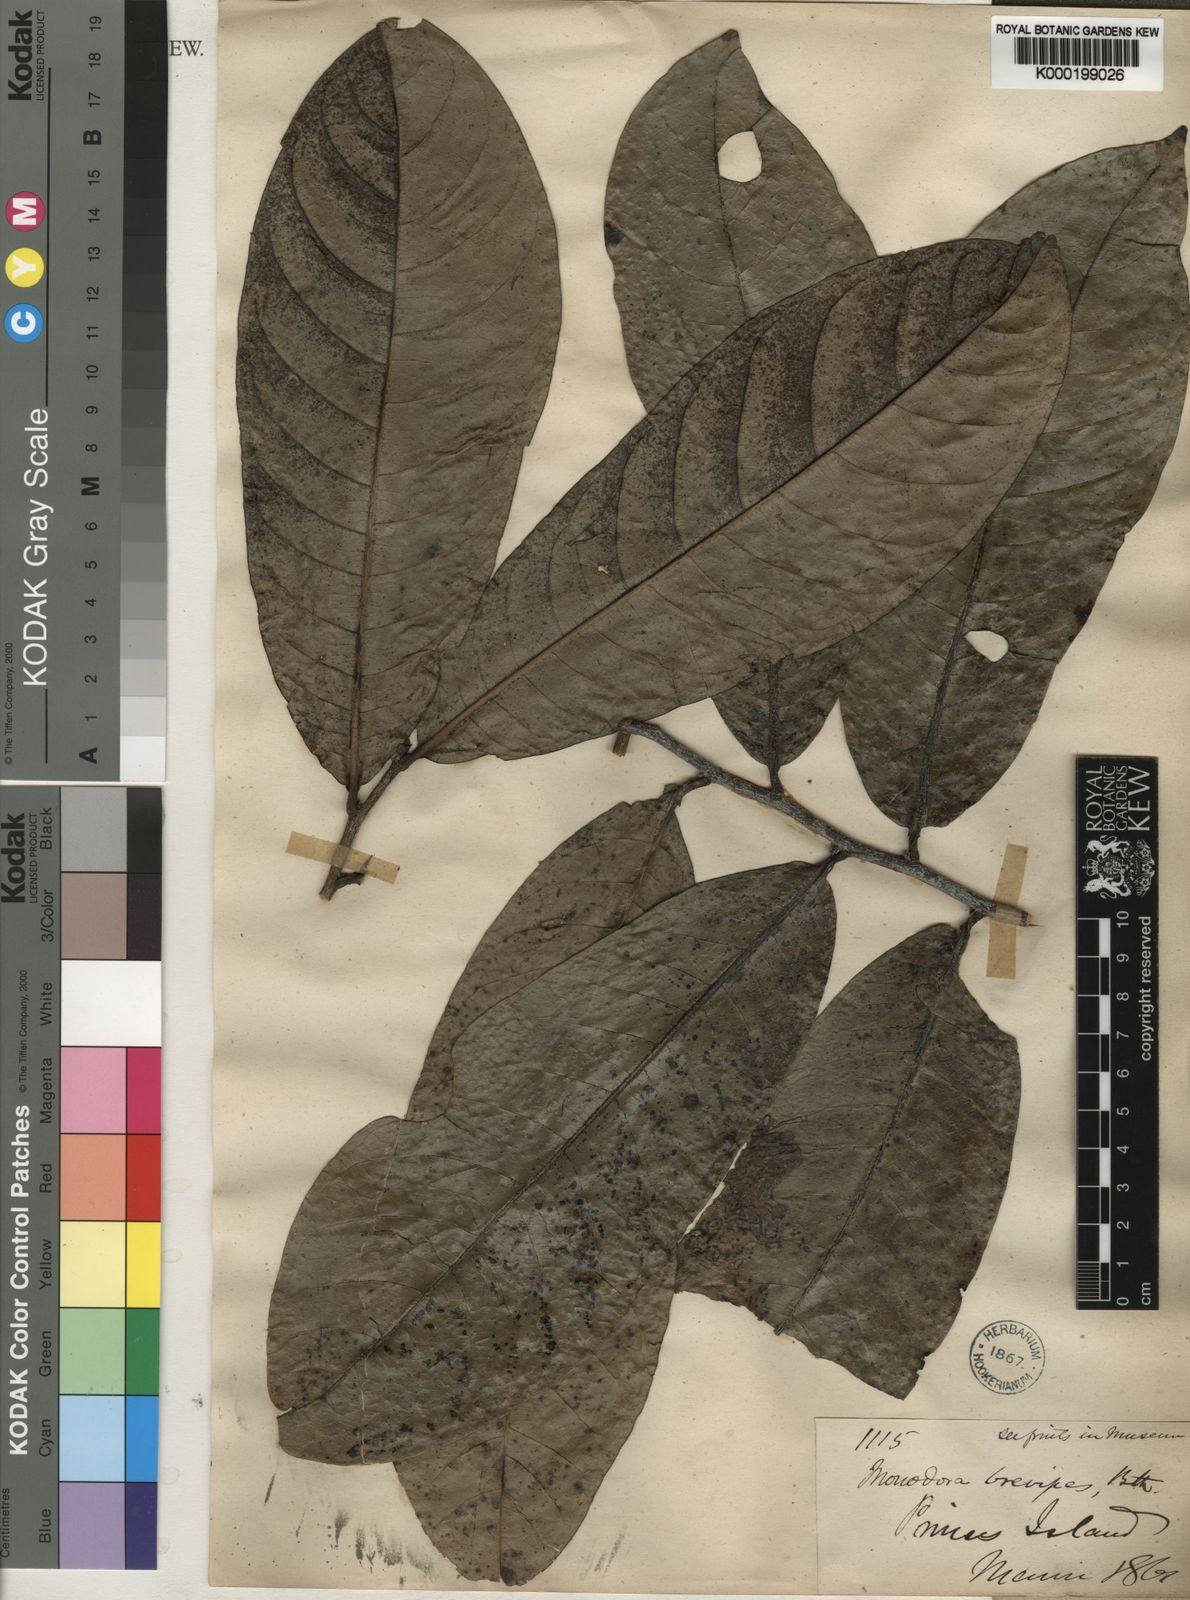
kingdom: Plantae
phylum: Tracheophyta
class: Magnoliopsida
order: Magnoliales
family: Annonaceae
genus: Monodora
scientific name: Monodora undulata
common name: Yellow-flower-nutmeg
